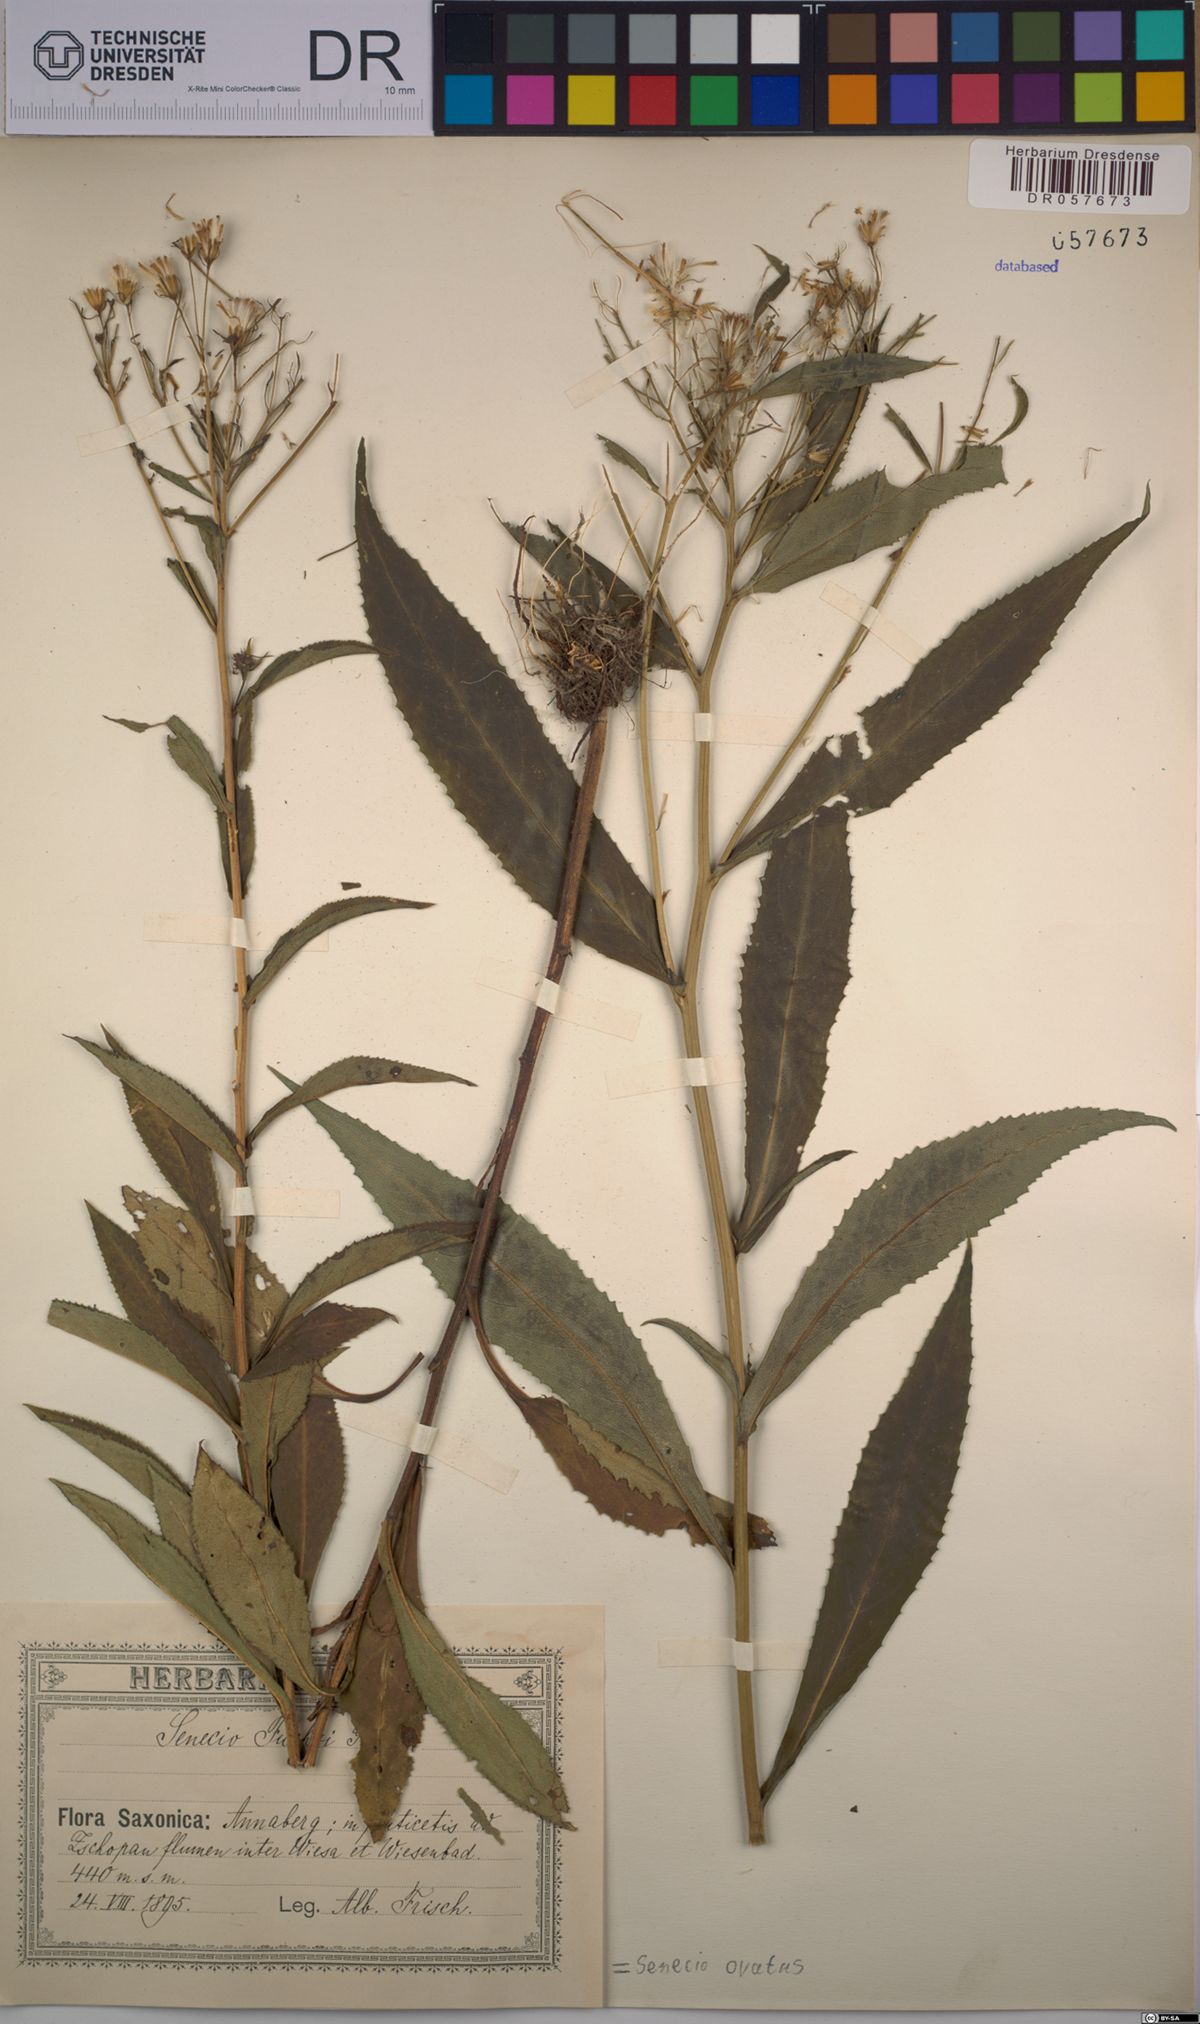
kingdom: Plantae
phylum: Tracheophyta
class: Magnoliopsida
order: Asterales
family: Asteraceae
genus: Senecio
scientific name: Senecio ovatus
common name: Wood ragwort
